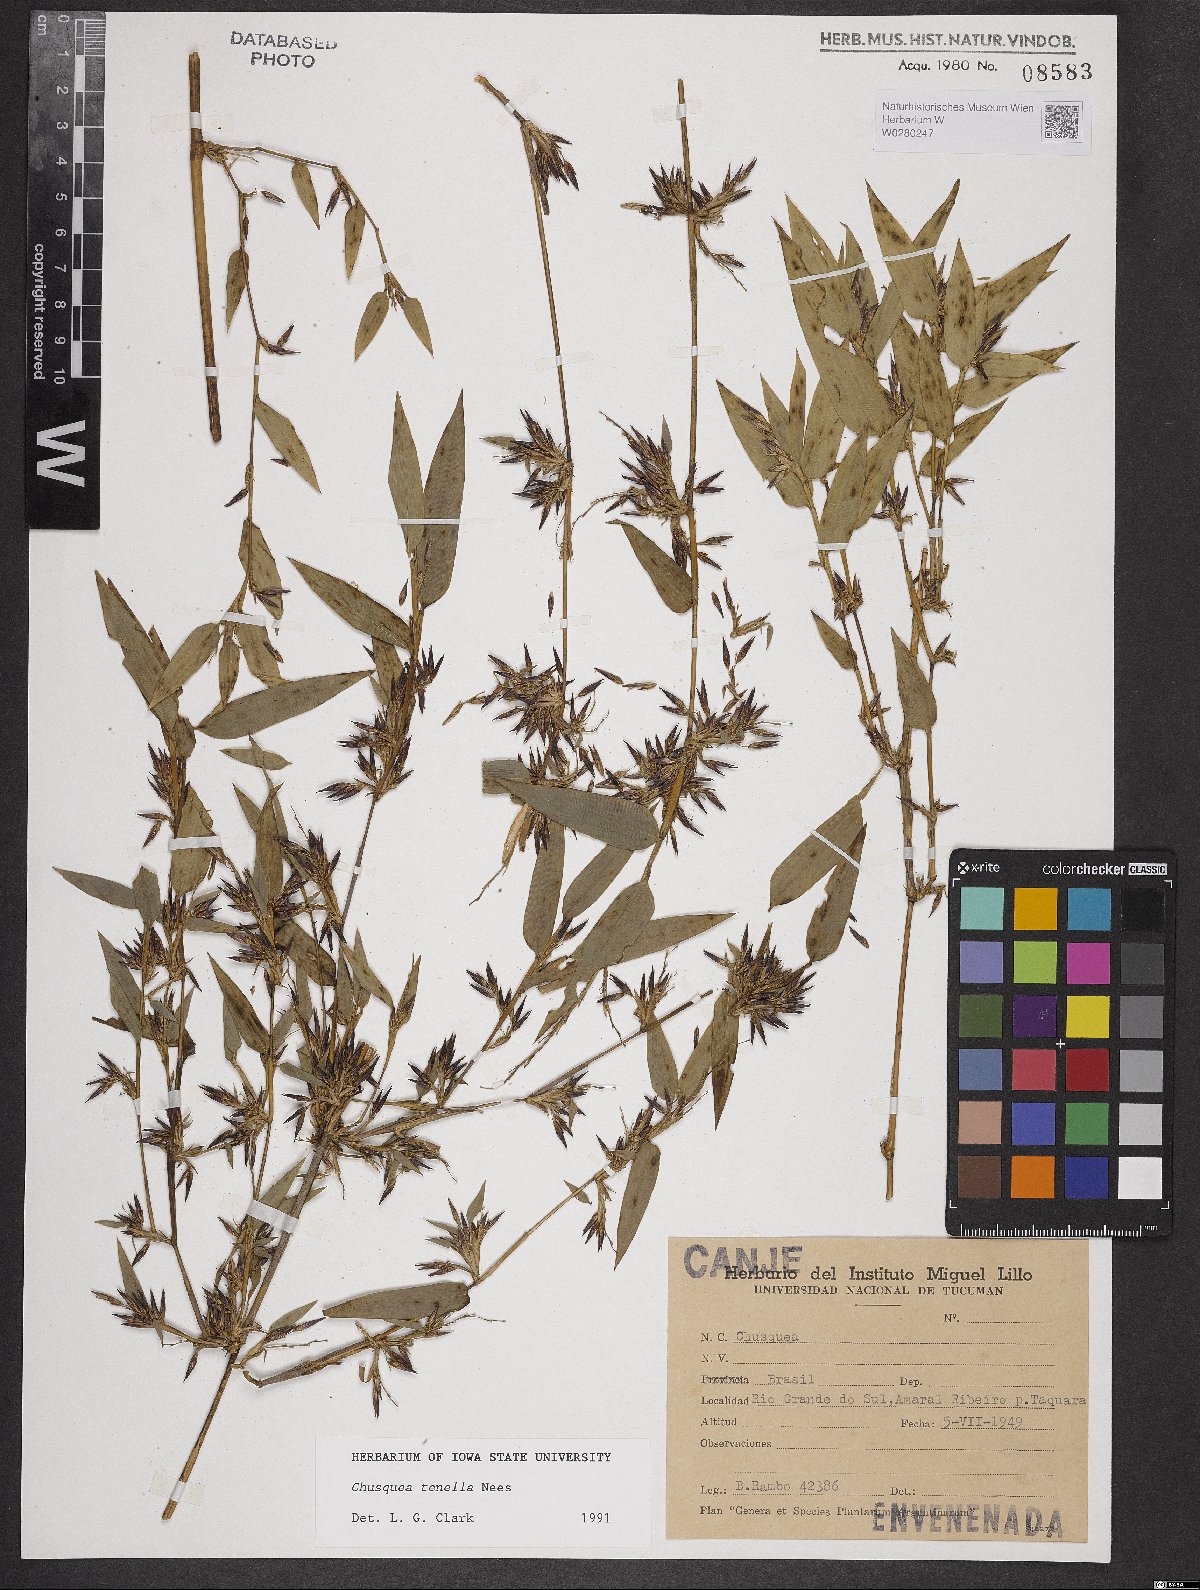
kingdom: Plantae
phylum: Tracheophyta
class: Liliopsida
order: Poales
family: Poaceae
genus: Chusquea
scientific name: Chusquea tenella
